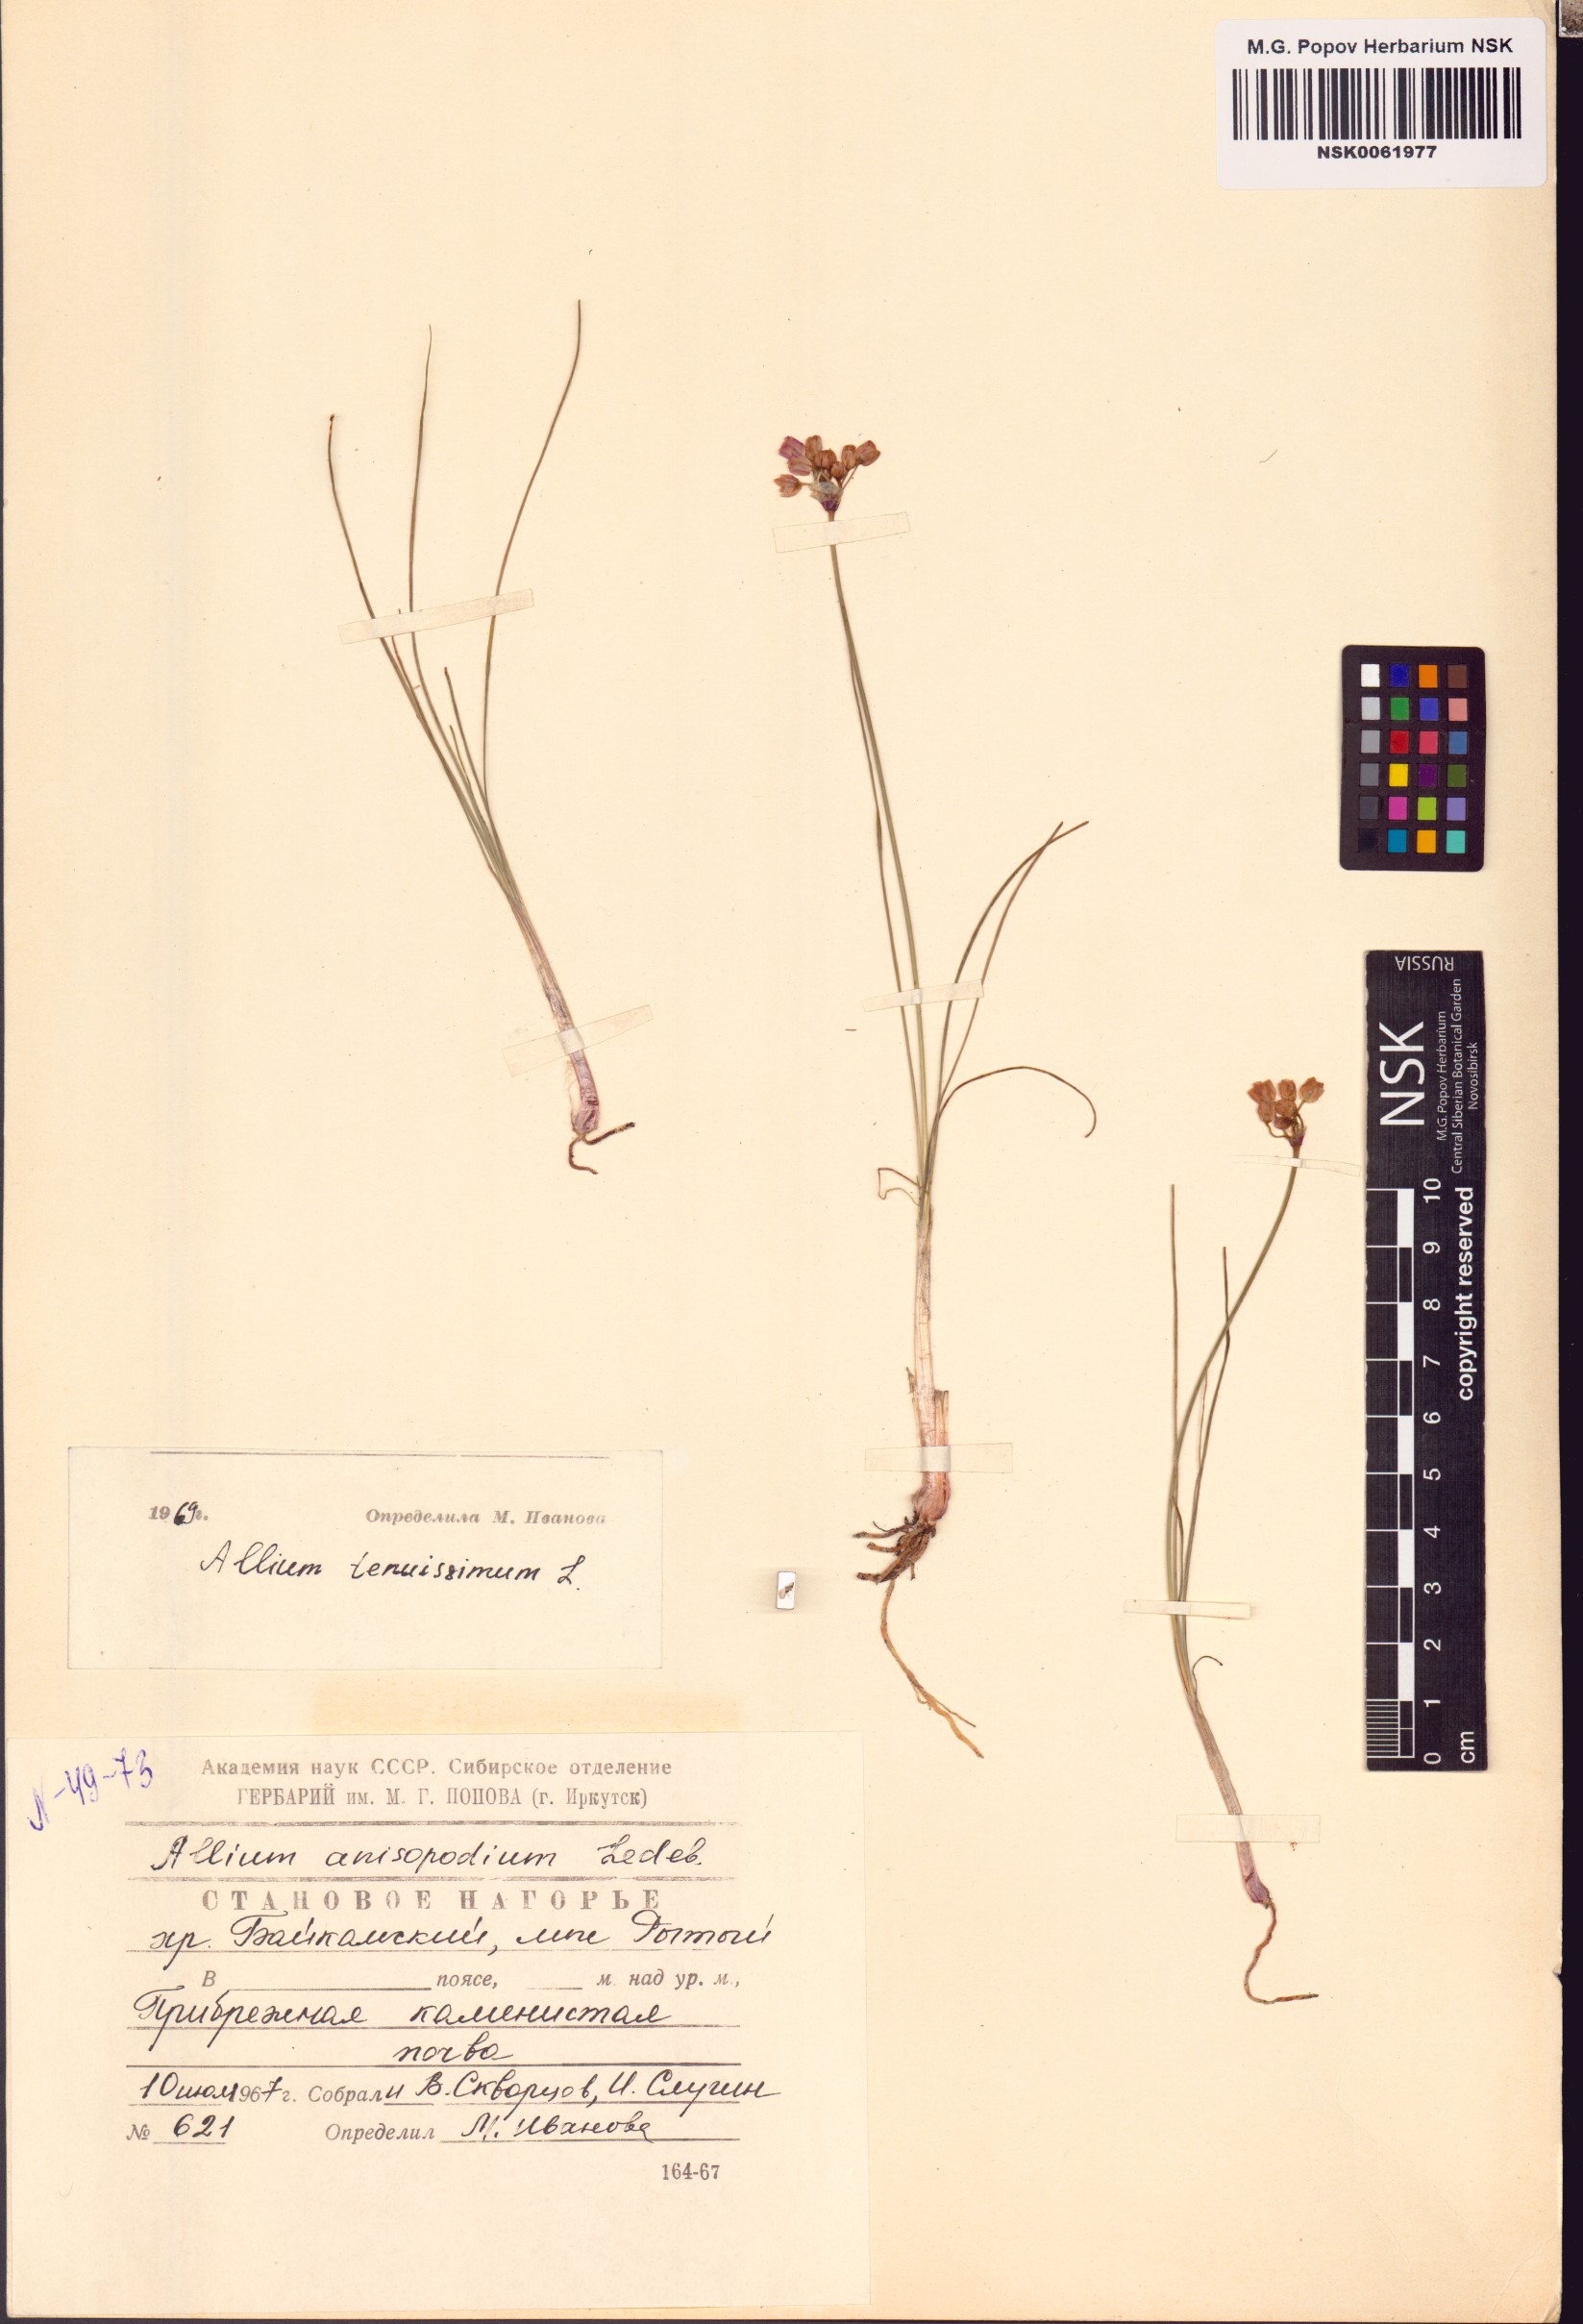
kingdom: Plantae
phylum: Tracheophyta
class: Liliopsida
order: Asparagales
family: Amaryllidaceae
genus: Allium
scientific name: Allium tenuissimum
